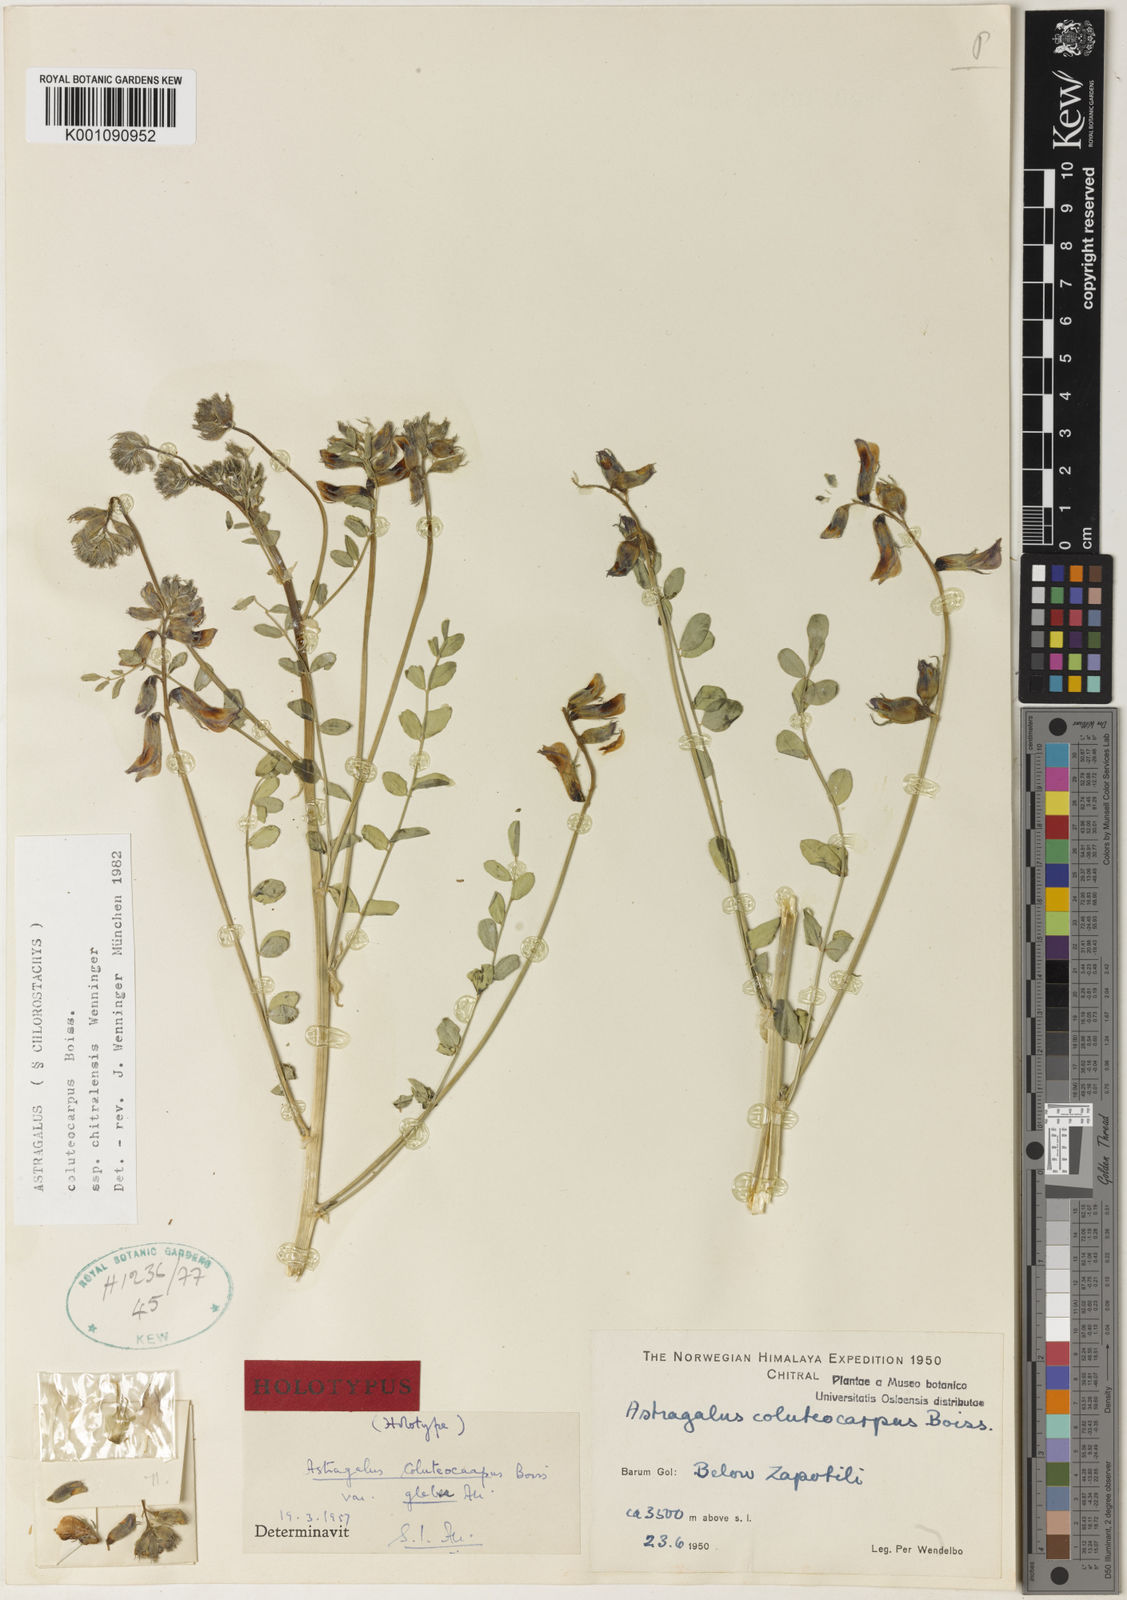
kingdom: Plantae
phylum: Tracheophyta
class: Magnoliopsida
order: Fabales
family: Fabaceae
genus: Astragalus
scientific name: Astragalus
